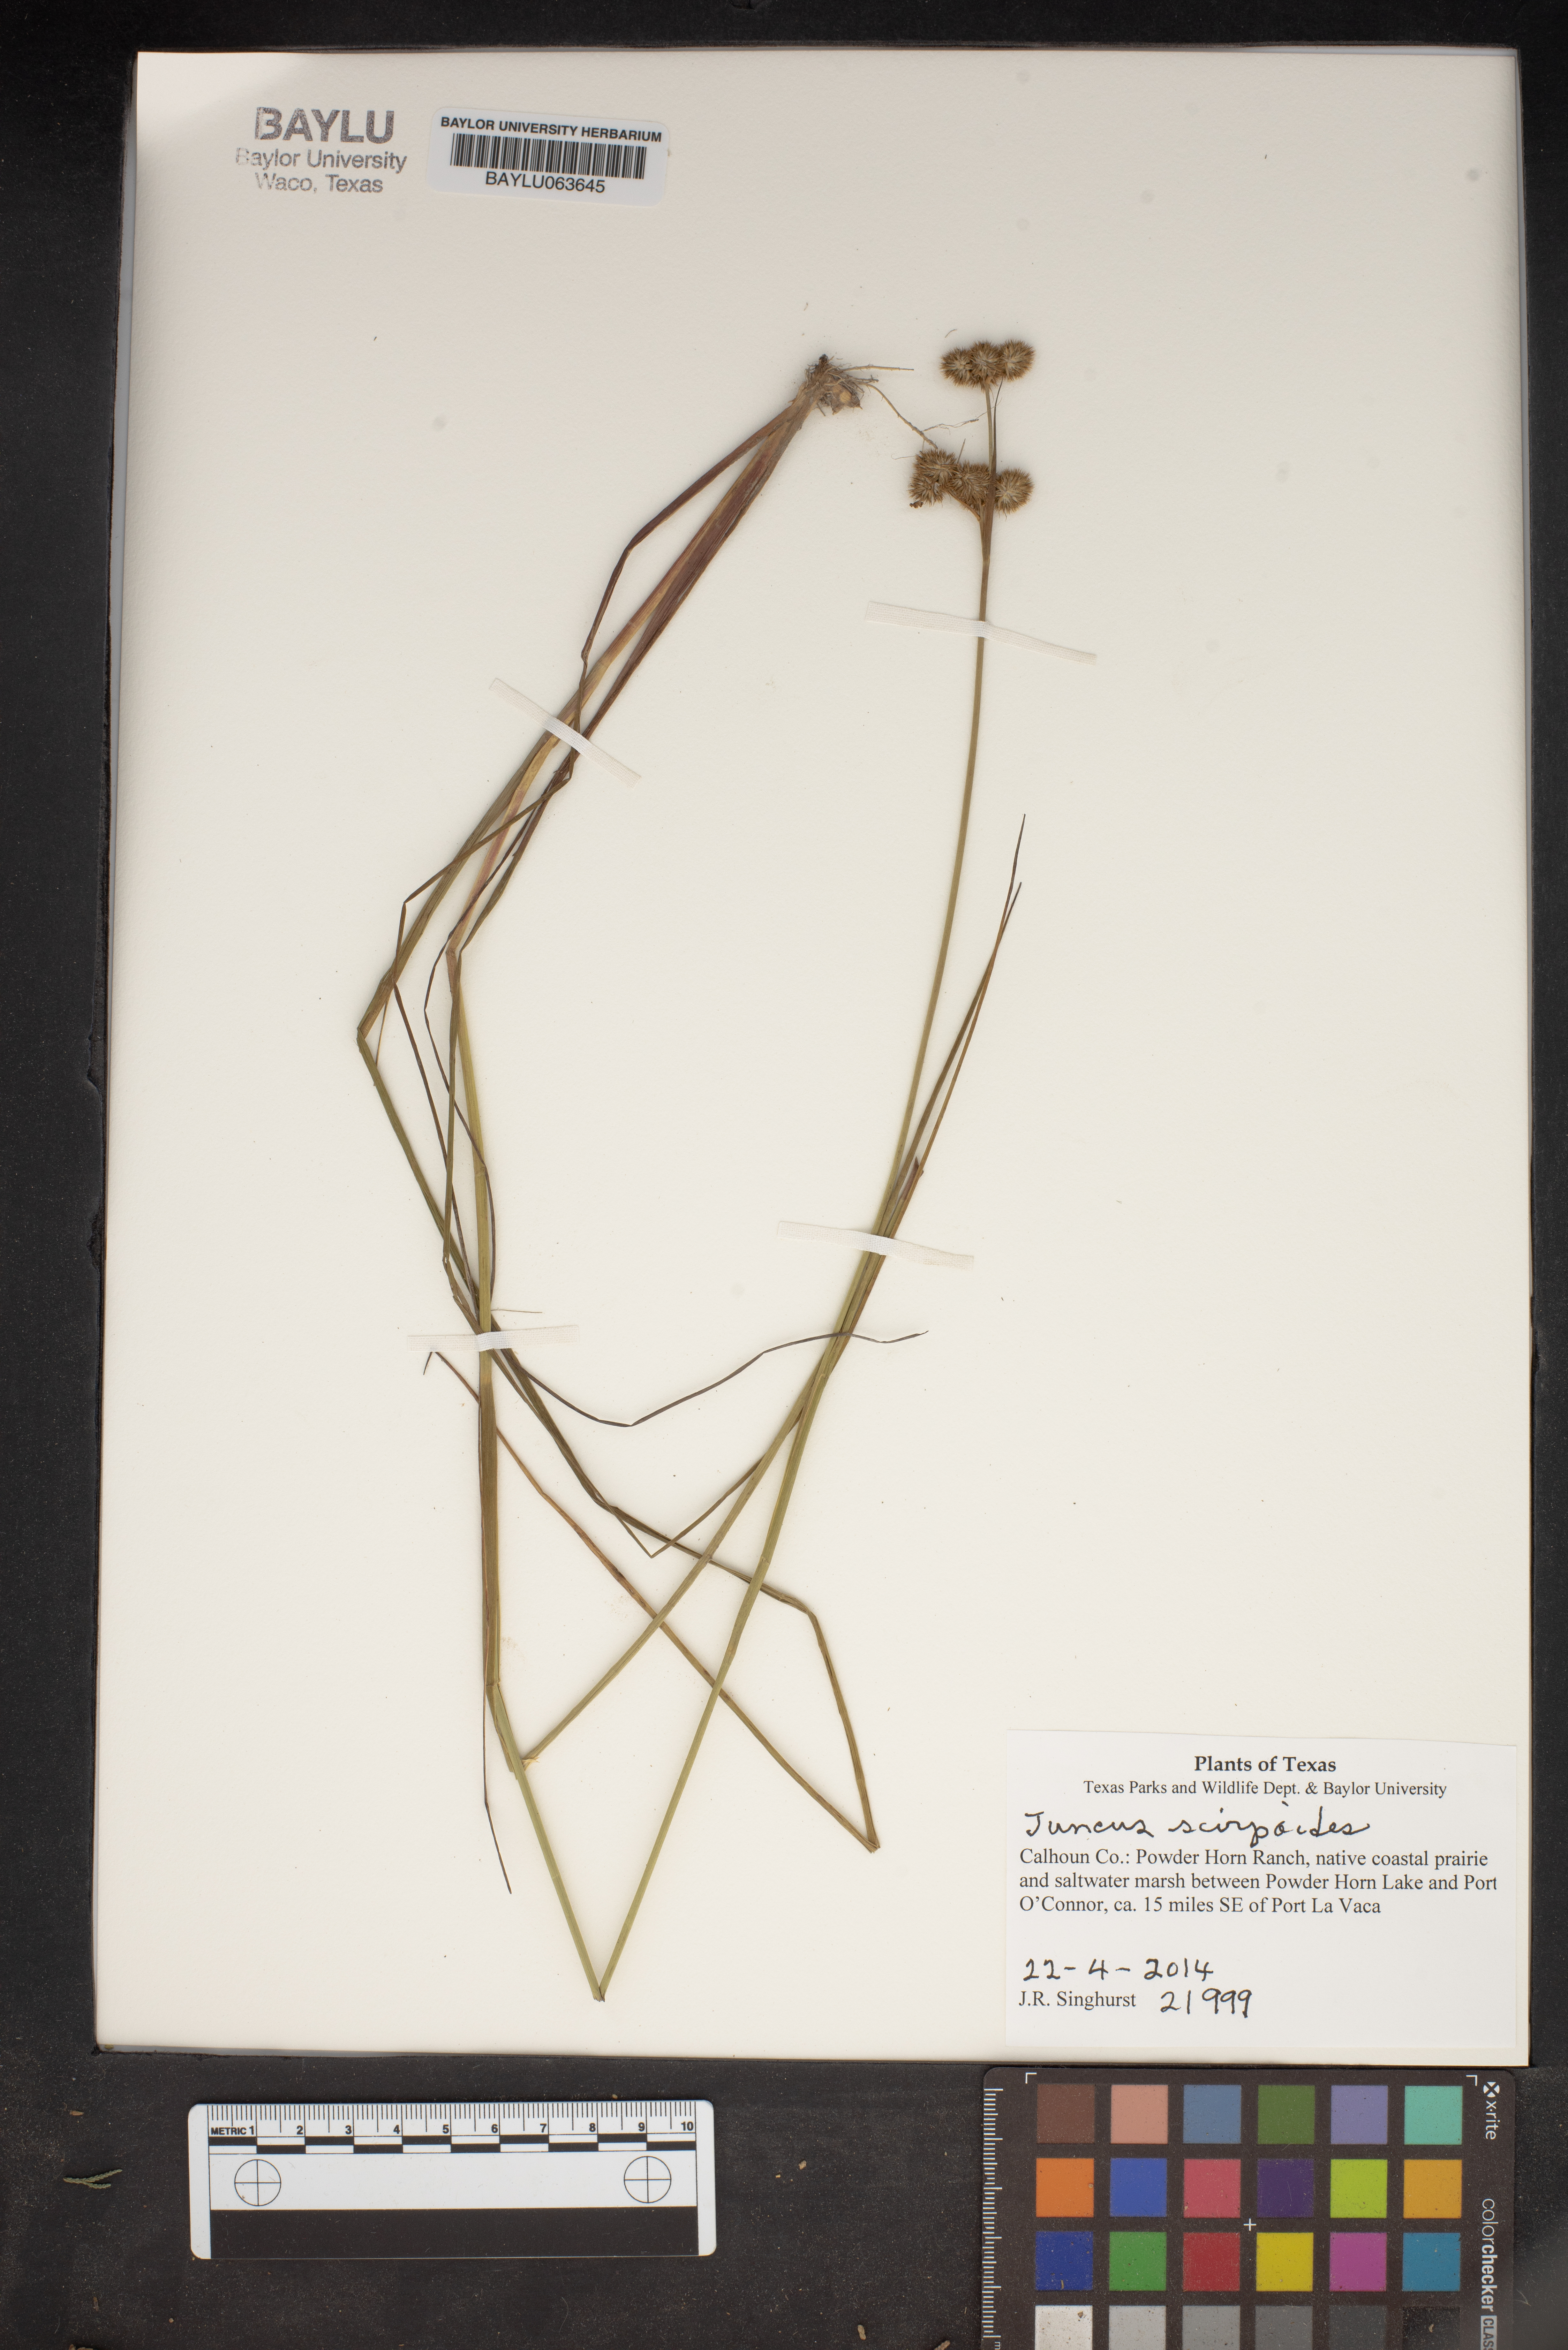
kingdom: Plantae
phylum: Tracheophyta
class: Liliopsida
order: Poales
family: Juncaceae
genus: Juncus
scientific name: Juncus scirpoides
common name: Needlepod rush
